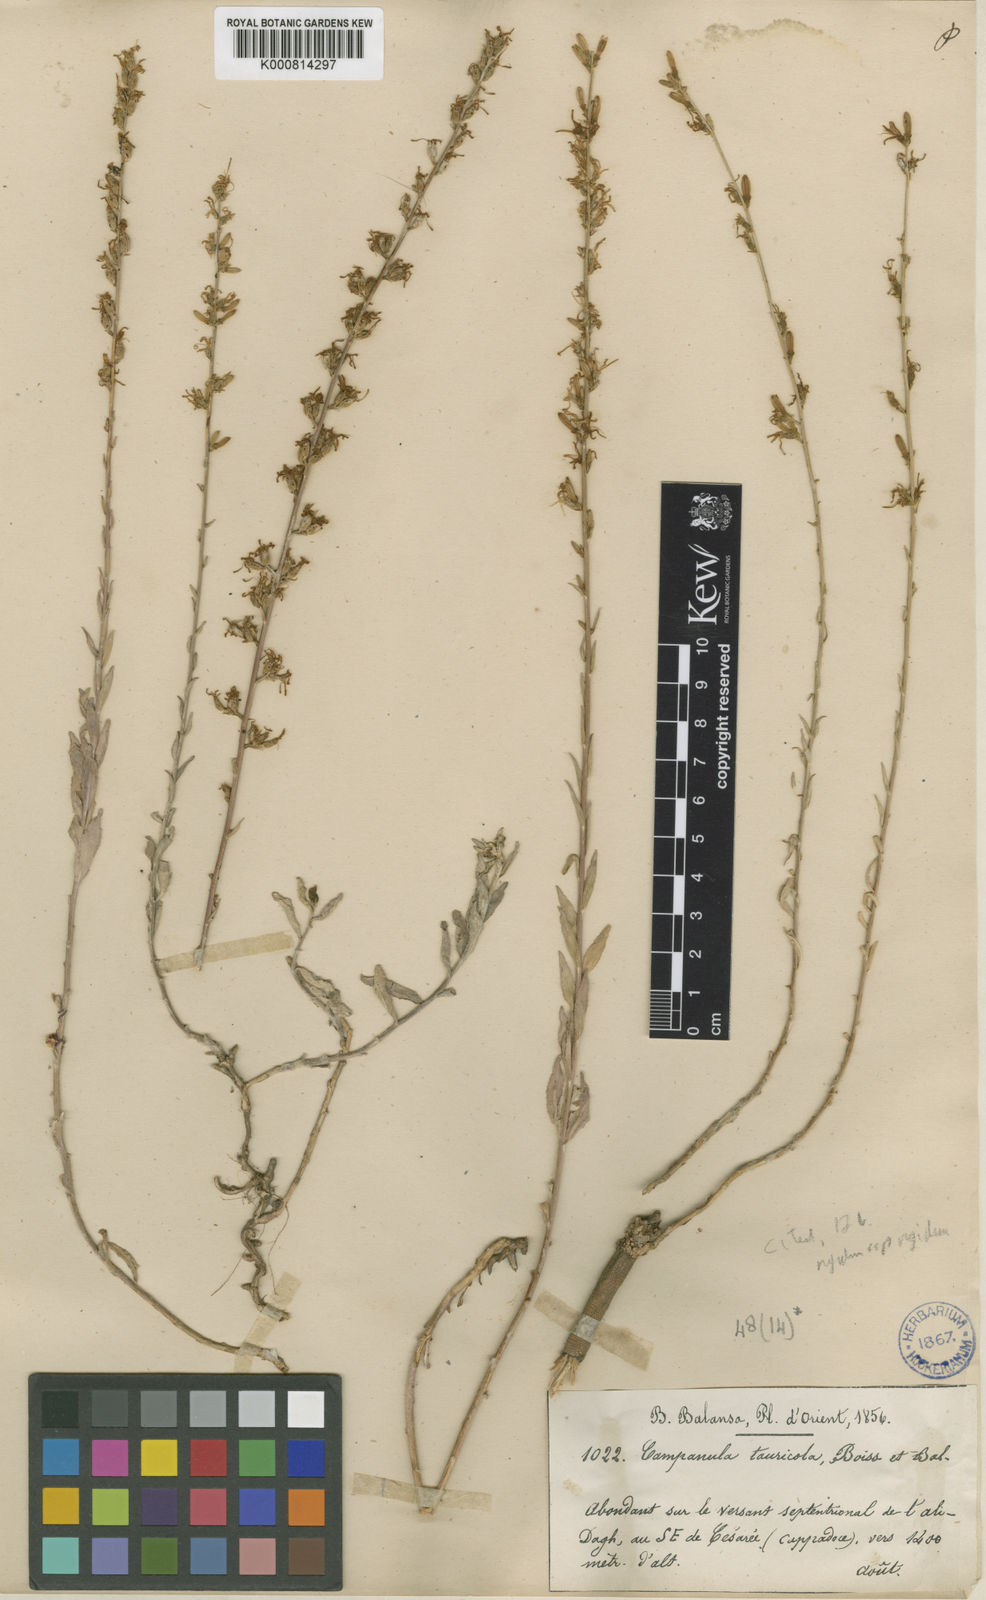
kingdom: Plantae
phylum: Tracheophyta
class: Magnoliopsida
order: Asterales
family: Campanulaceae
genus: Asyneuma
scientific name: Asyneuma rigidum
